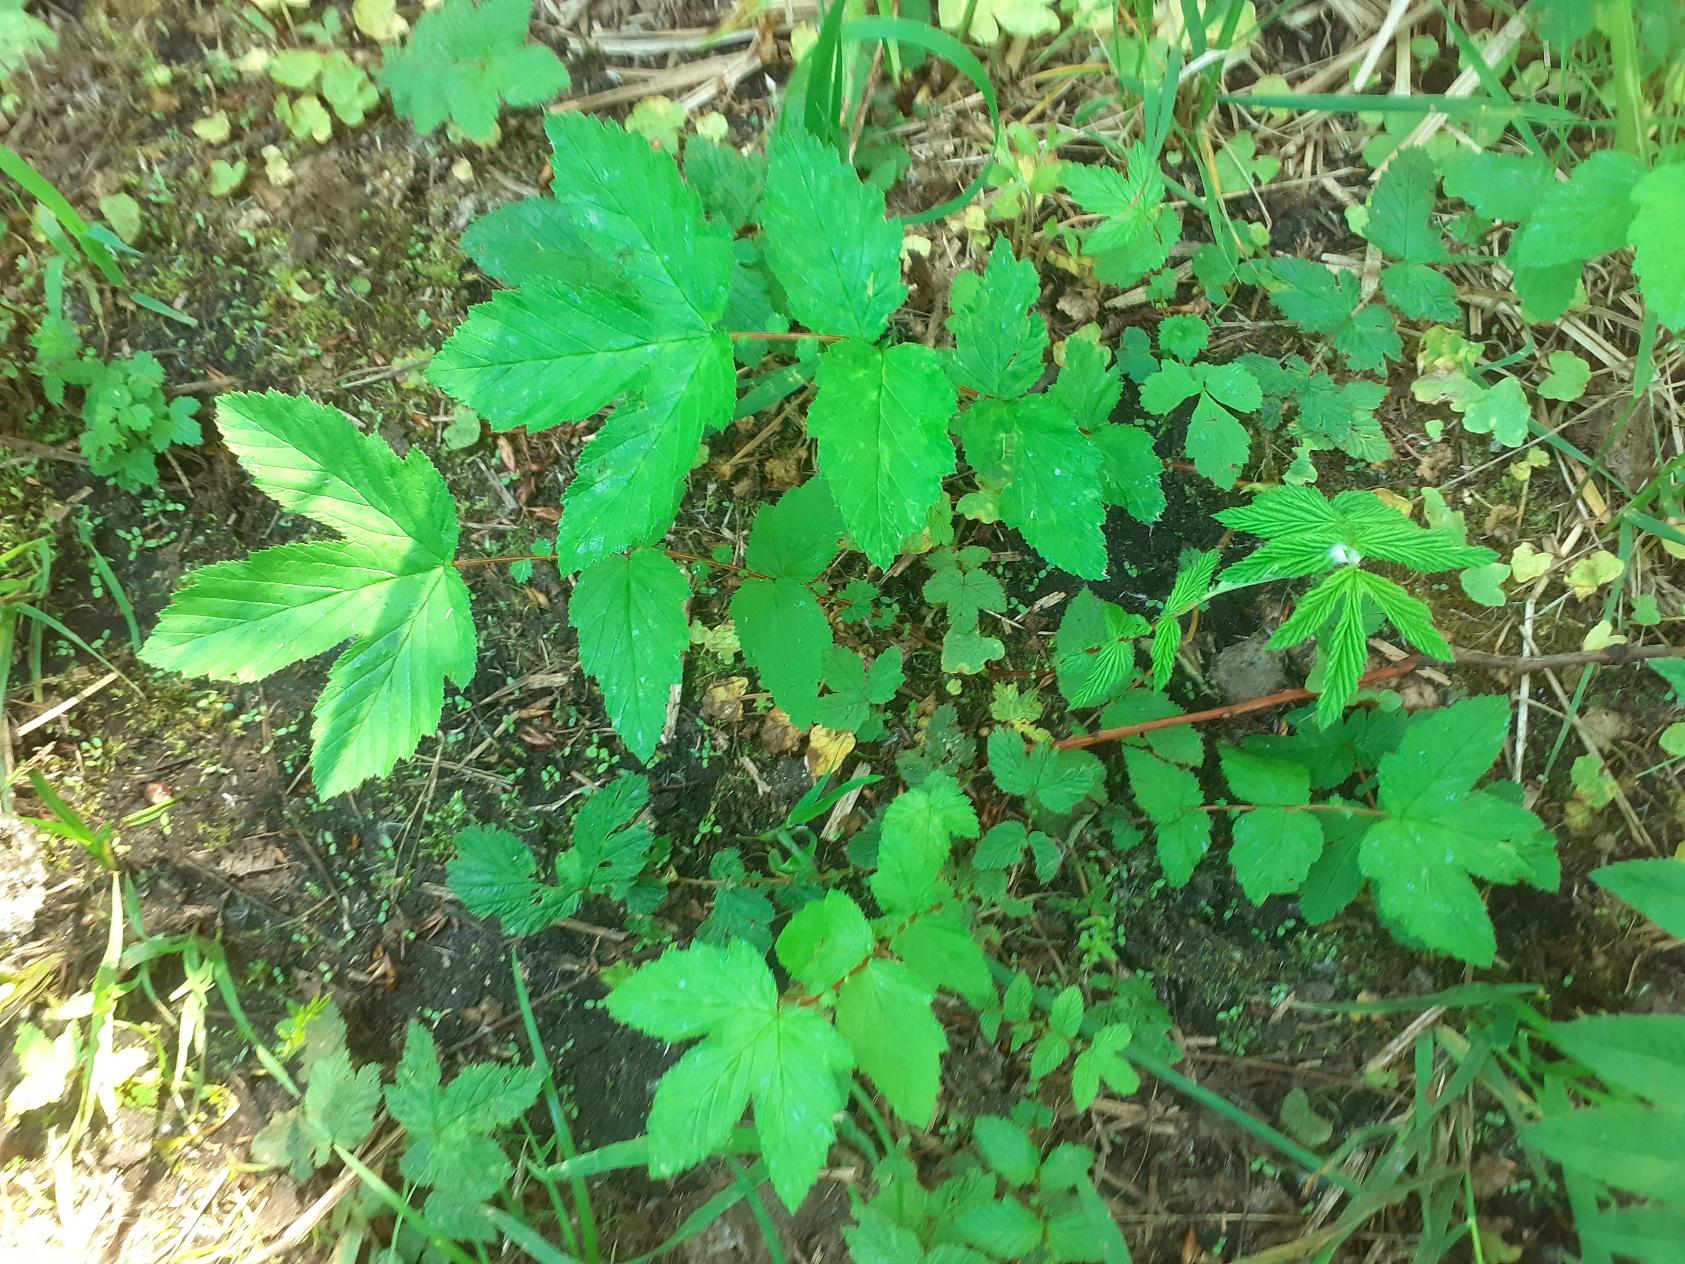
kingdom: Plantae
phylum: Tracheophyta
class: Magnoliopsida
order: Rosales
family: Rosaceae
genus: Filipendula
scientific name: Filipendula ulmaria
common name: Almindelig mjødurt
